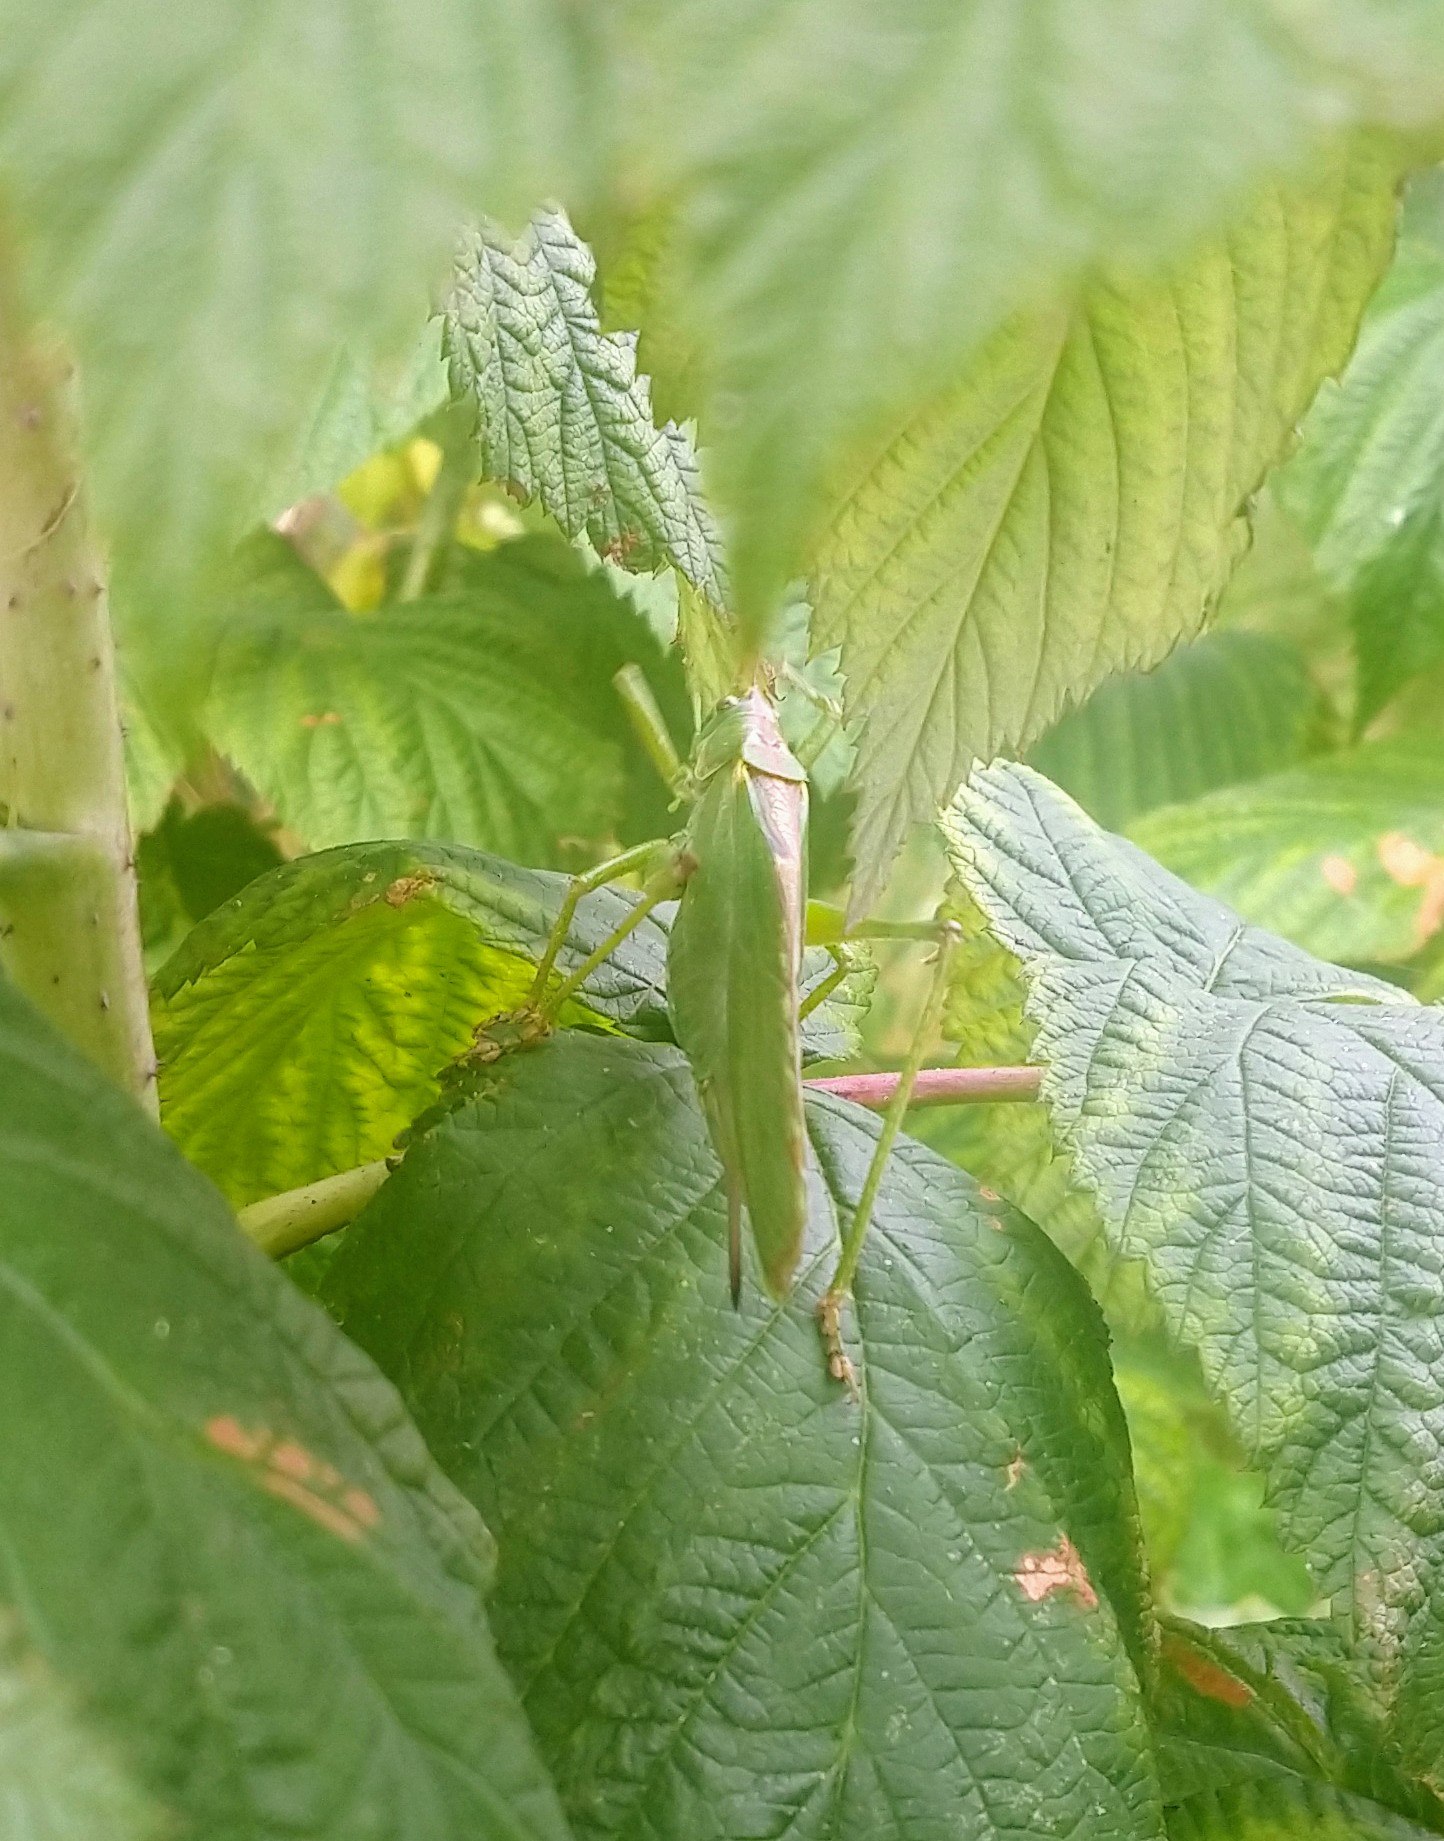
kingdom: Animalia
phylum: Arthropoda
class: Insecta
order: Orthoptera
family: Tettigoniidae
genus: Tettigonia
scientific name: Tettigonia viridissima
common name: Stor grøn løvgræshoppe
